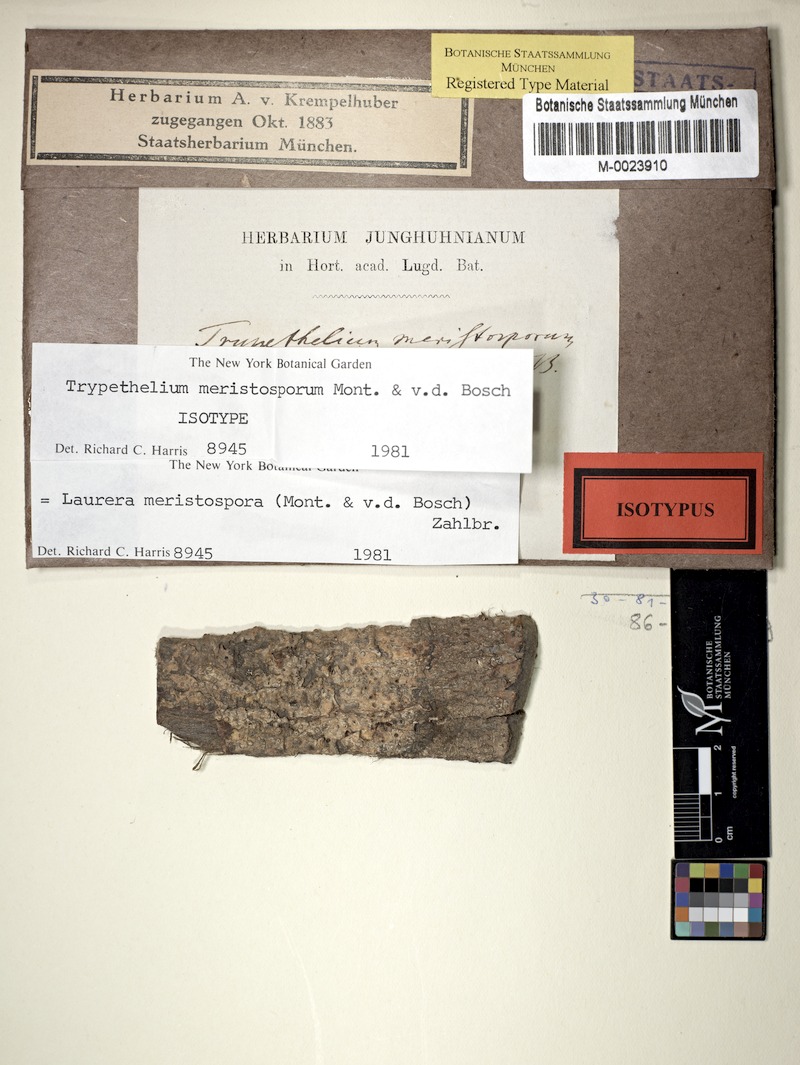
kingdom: Fungi
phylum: Ascomycota
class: Dothideomycetes
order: Trypetheliales
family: Trypetheliaceae
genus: Astrothelium
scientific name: Astrothelium meristosporum
